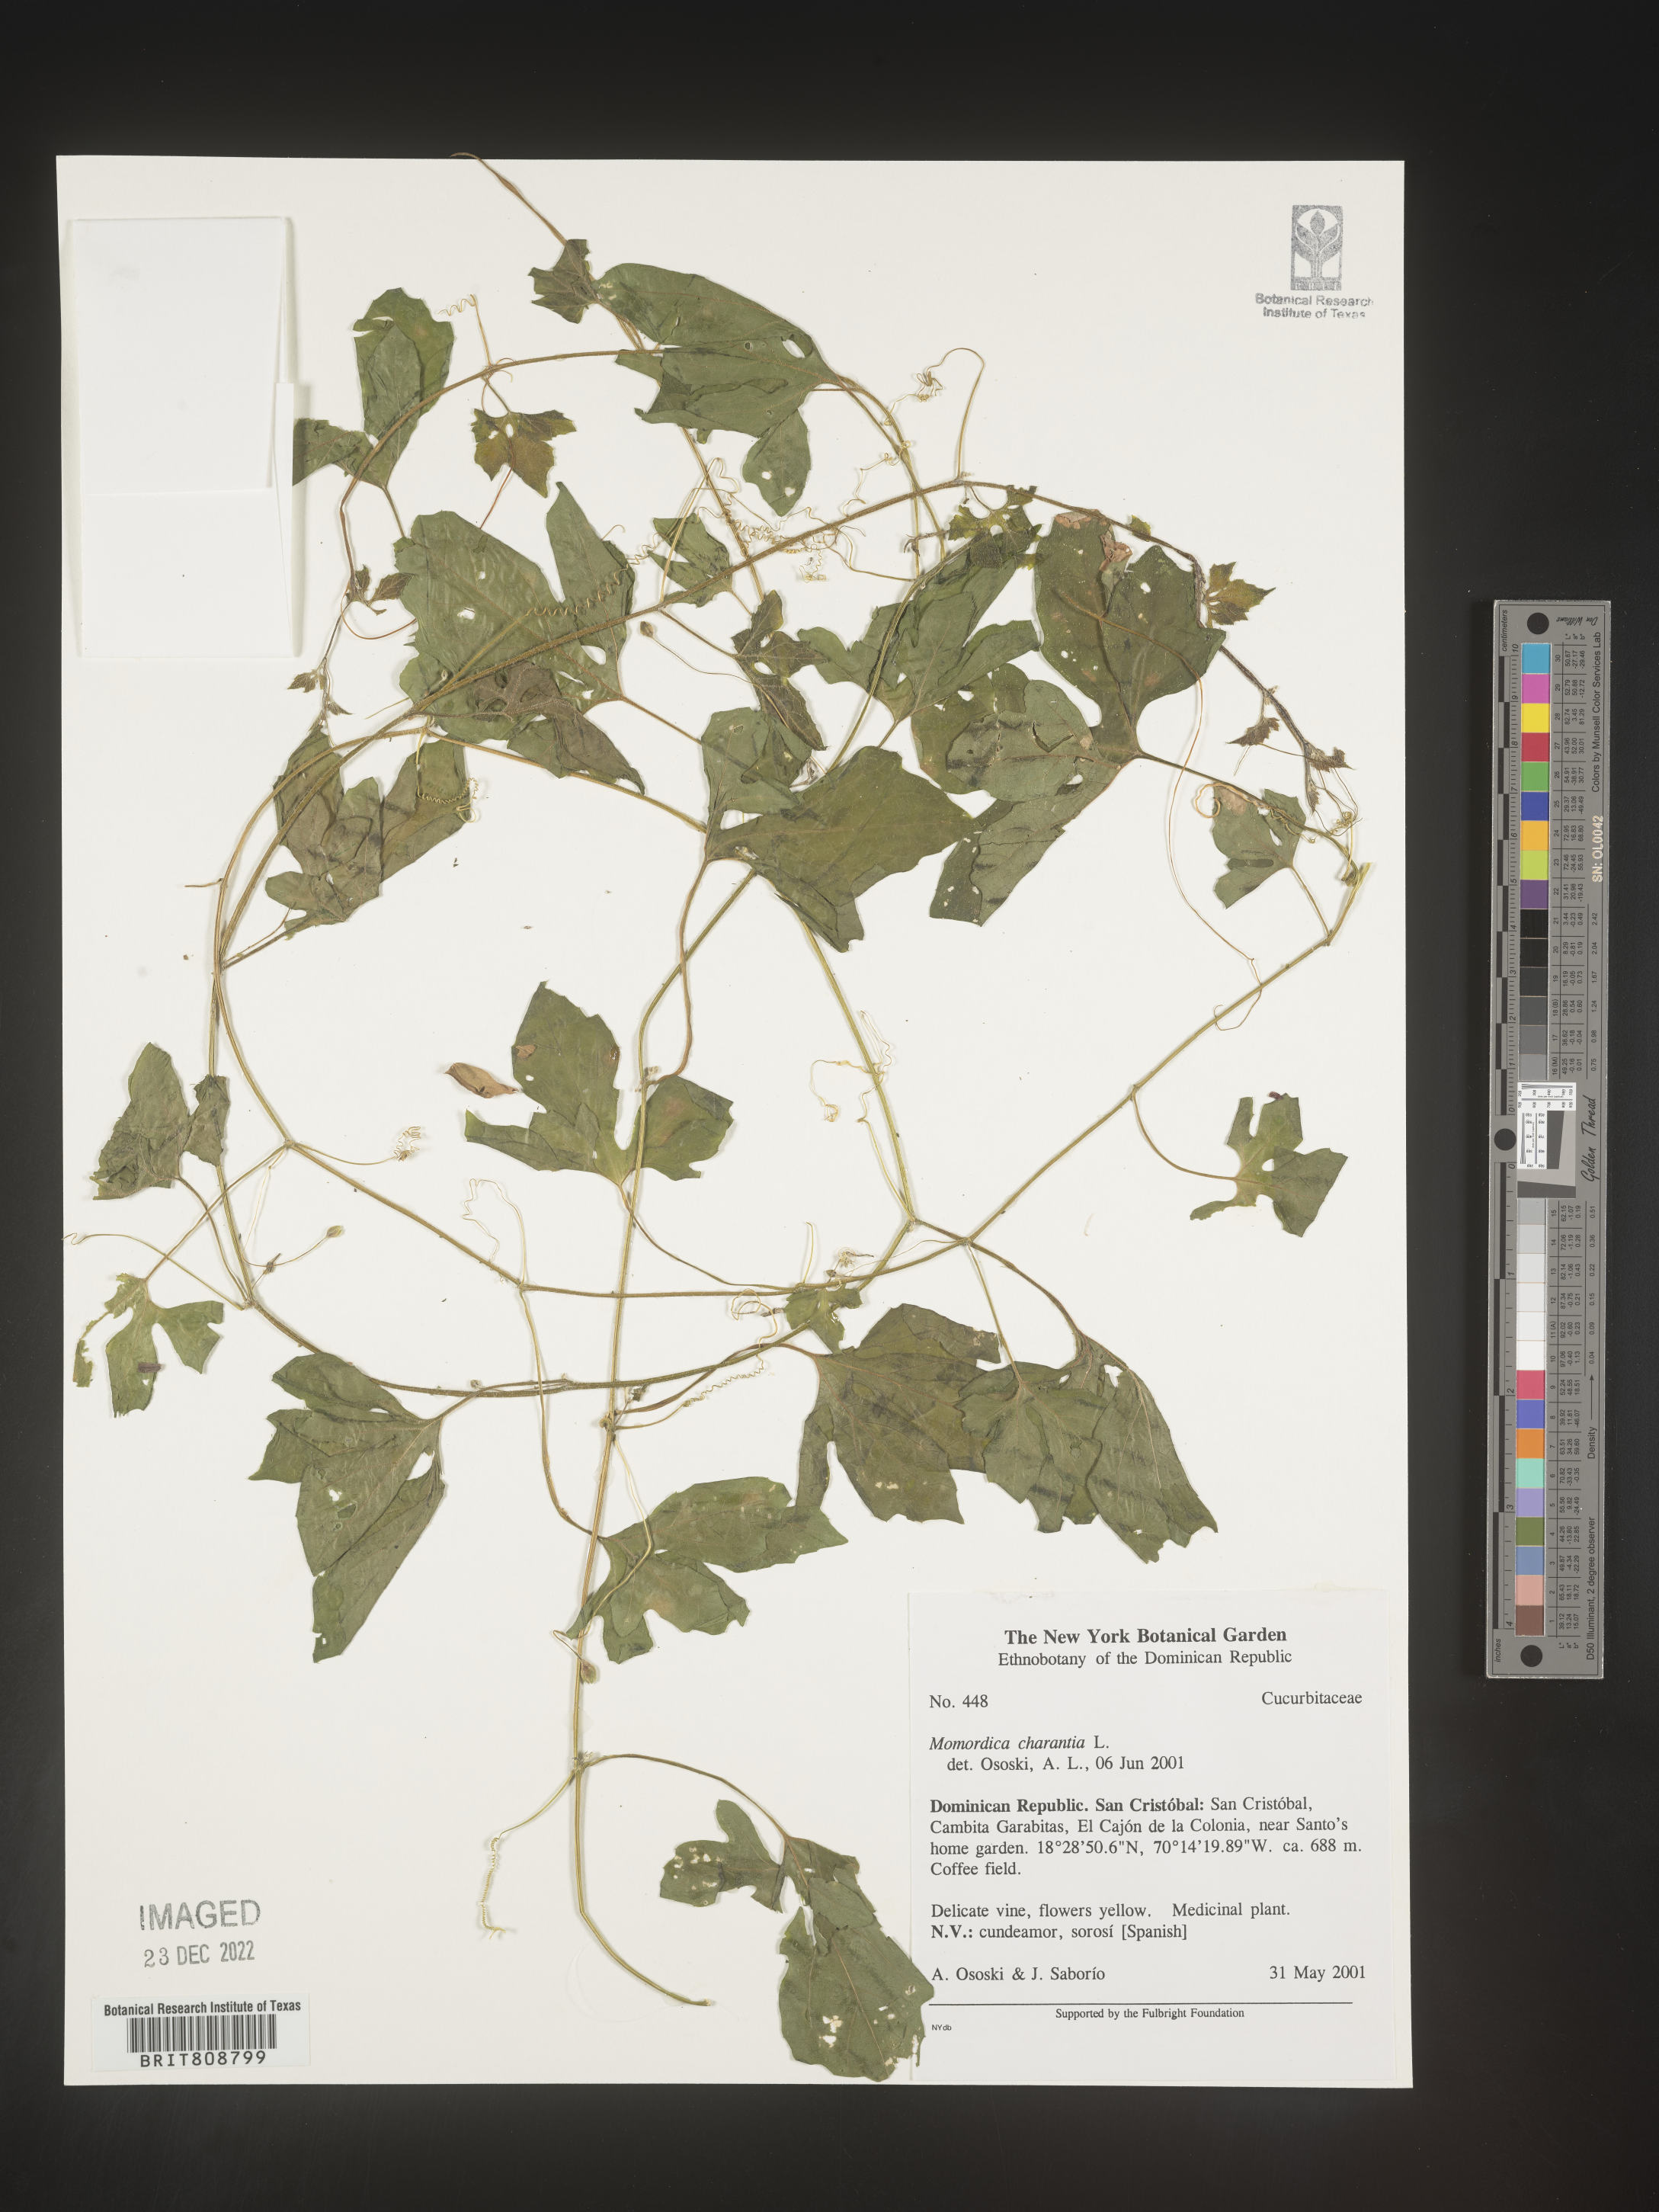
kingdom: Plantae
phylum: Tracheophyta
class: Magnoliopsida
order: Cucurbitales
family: Cucurbitaceae
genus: Momordica
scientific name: Momordica
